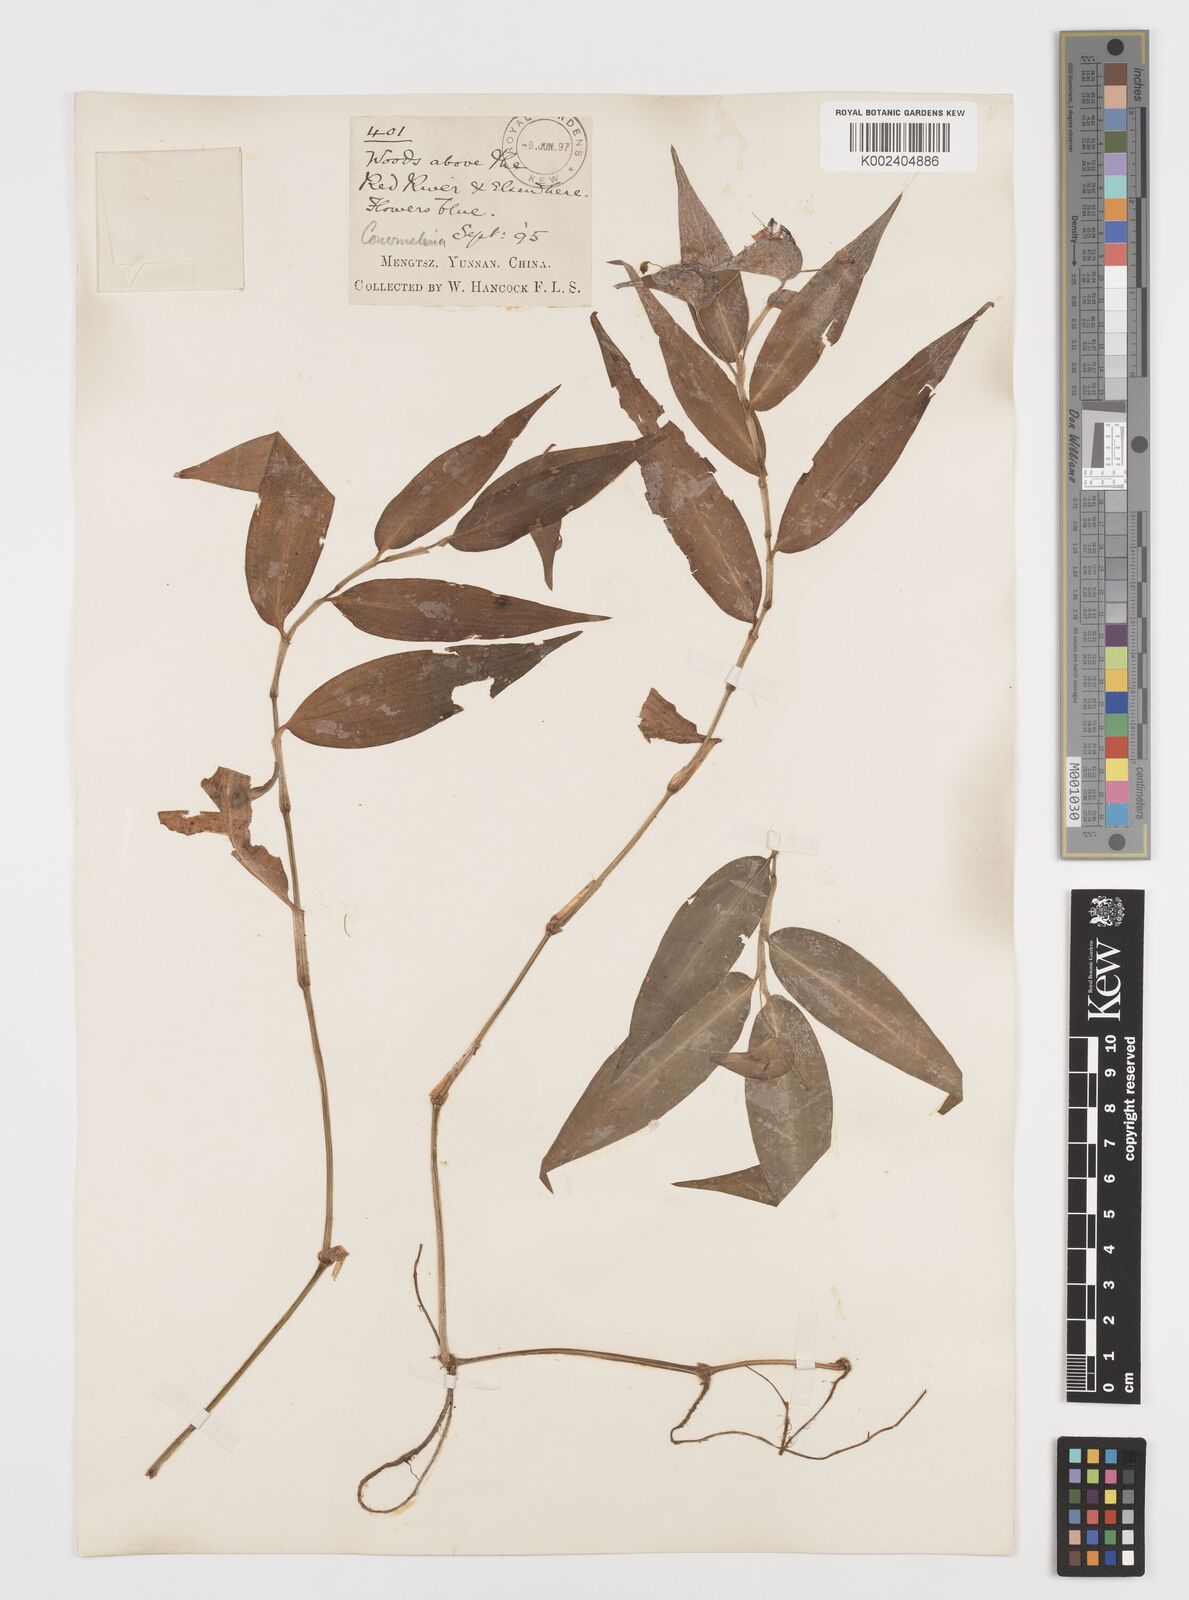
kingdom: Plantae
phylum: Tracheophyta
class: Liliopsida
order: Commelinales
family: Commelinaceae
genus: Commelina
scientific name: Commelina
